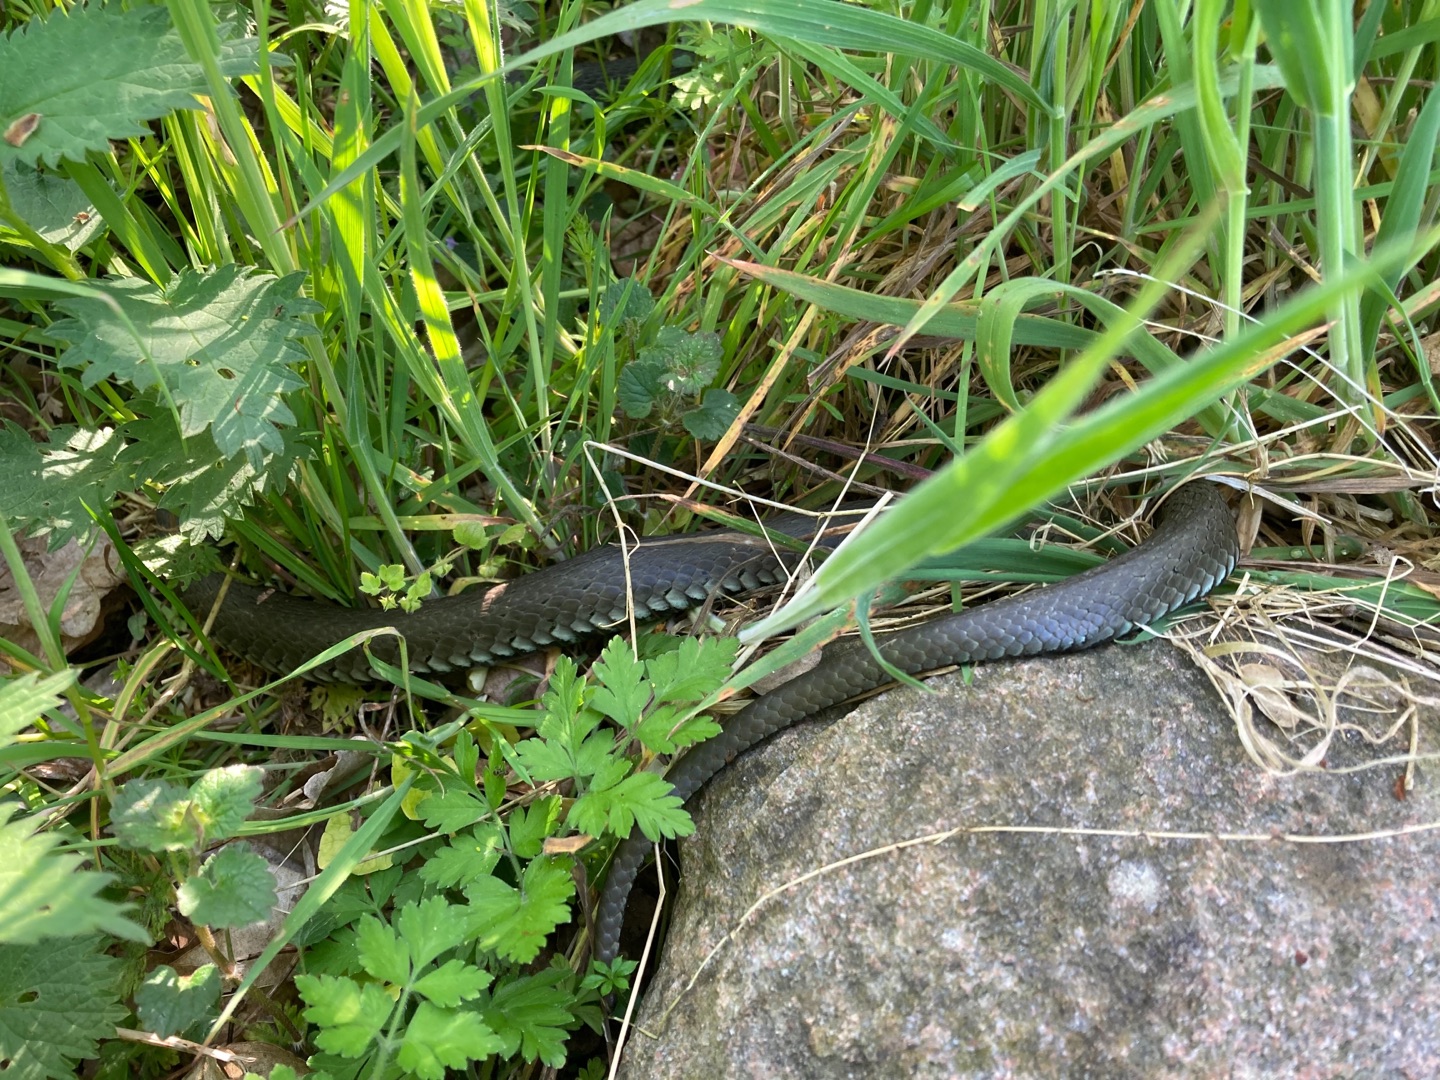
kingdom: Animalia
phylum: Chordata
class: Squamata
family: Colubridae
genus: Natrix
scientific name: Natrix natrix
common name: Snog
